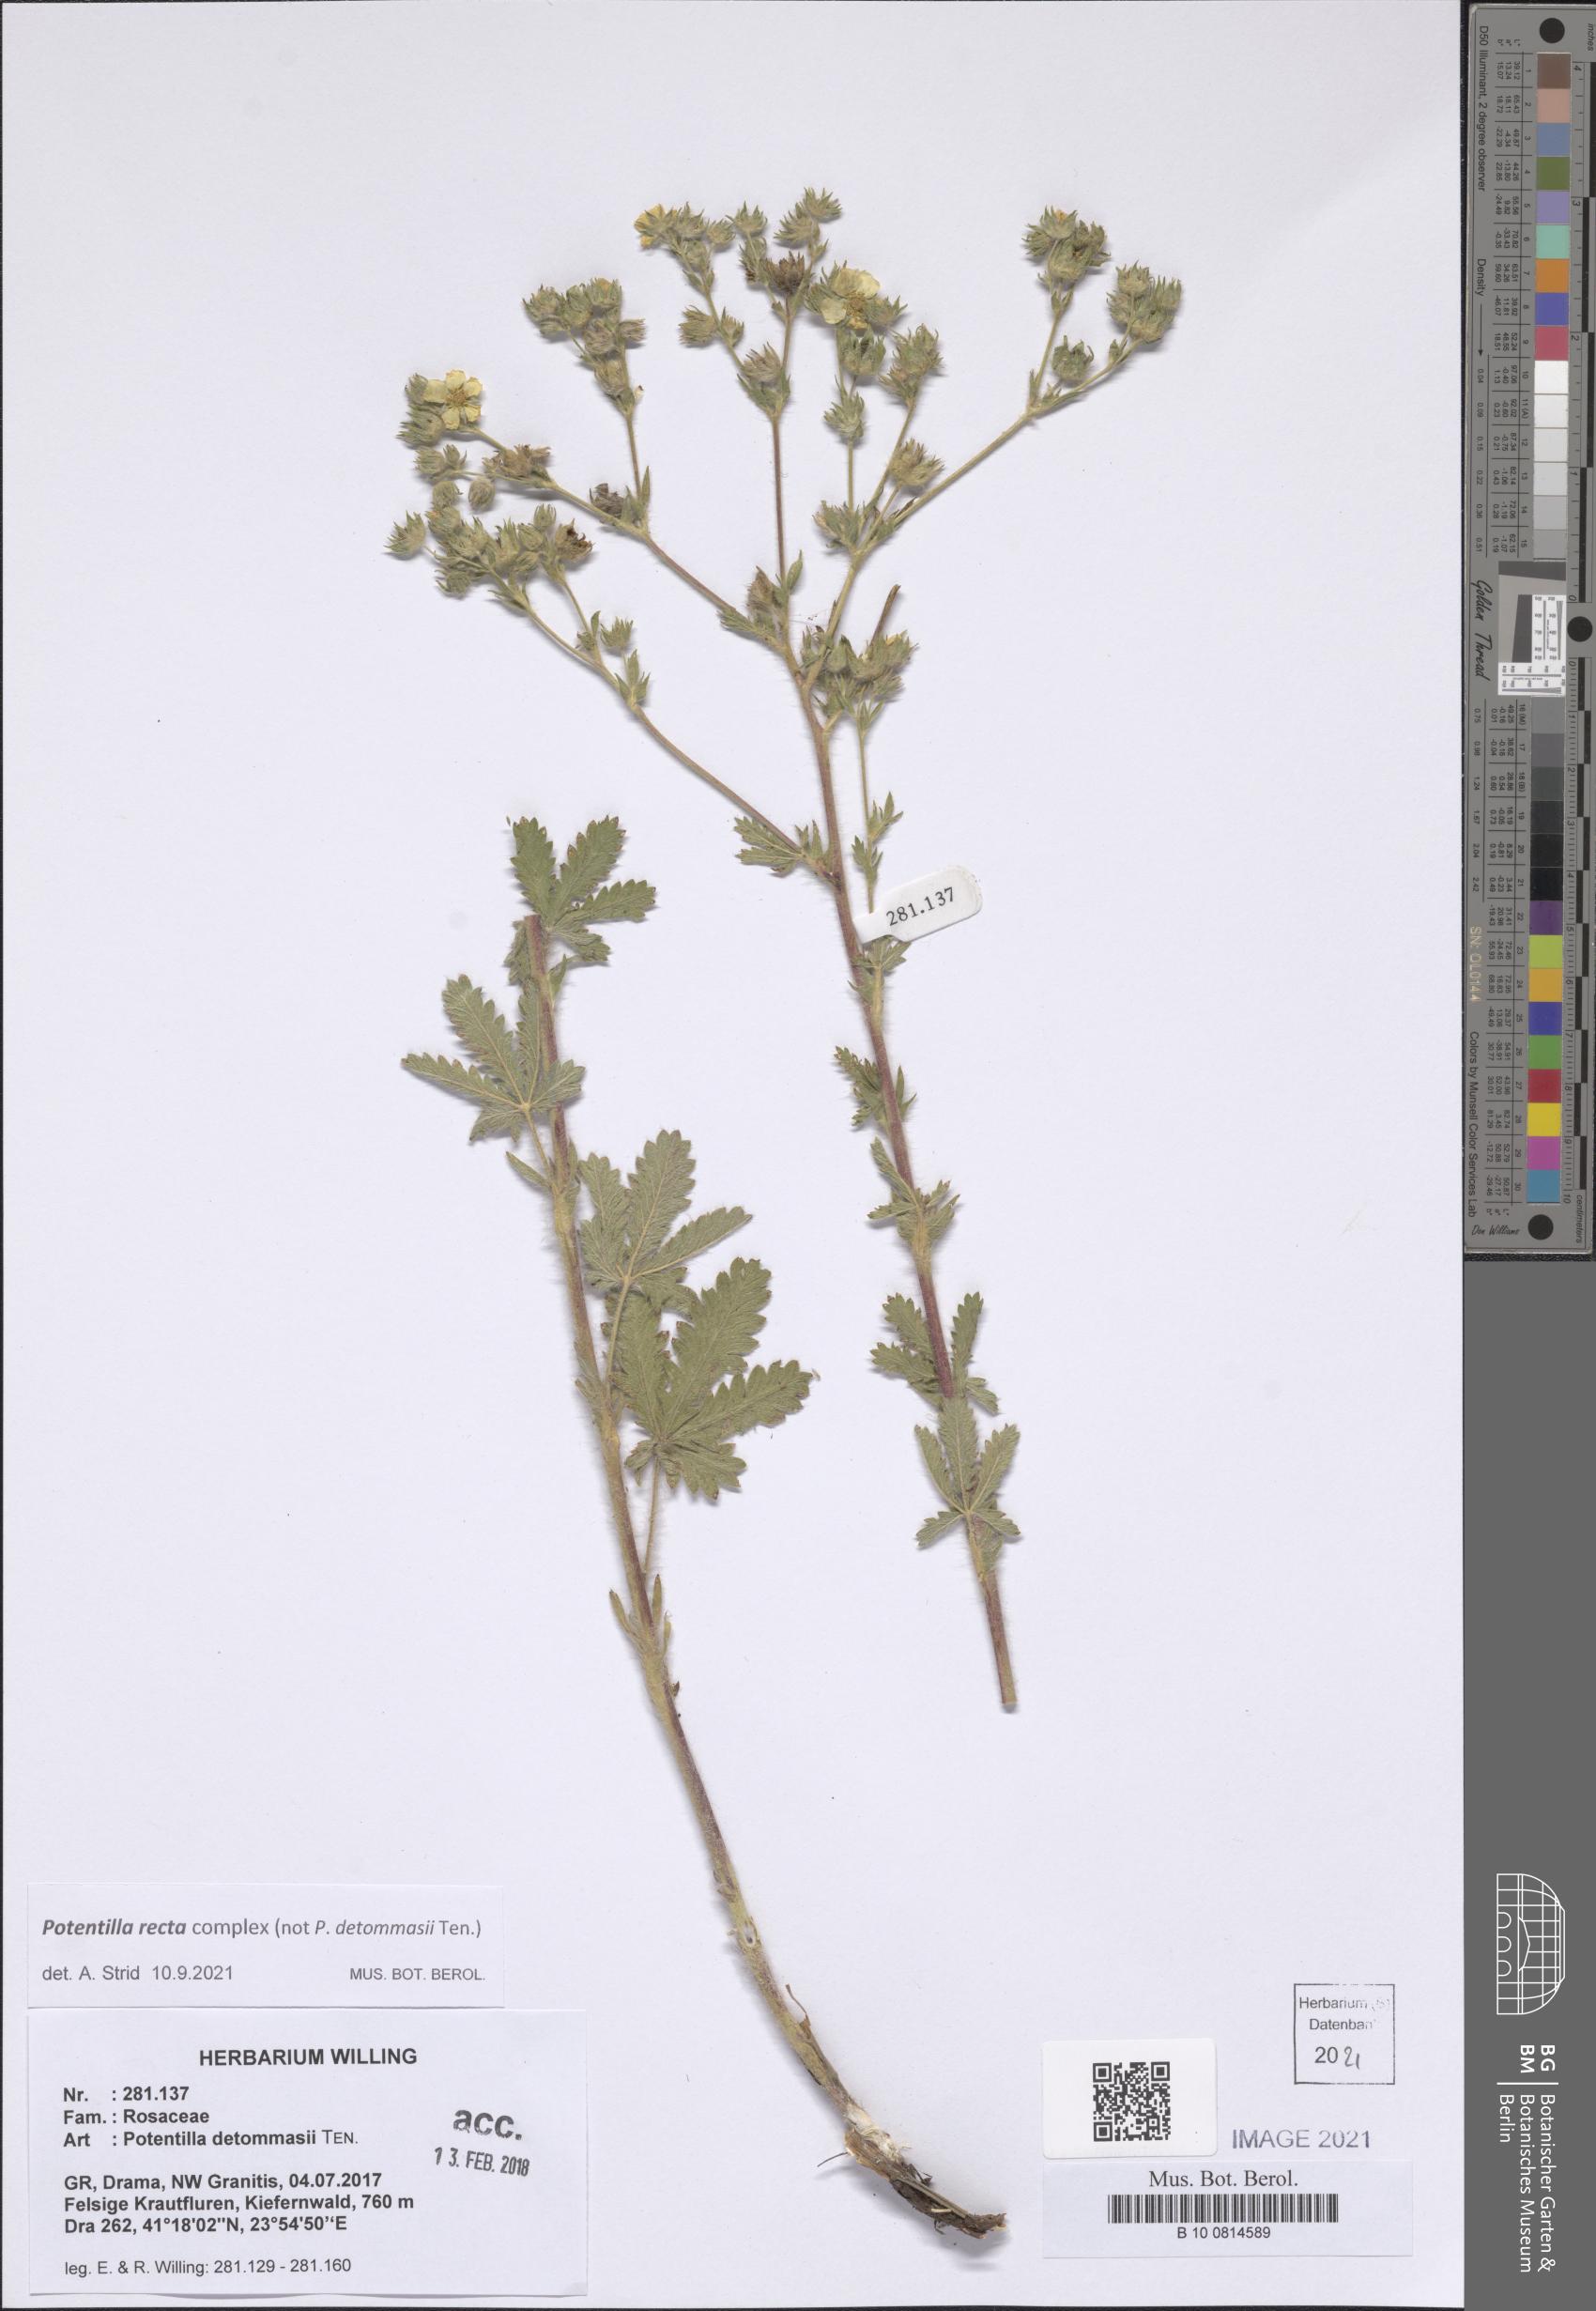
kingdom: Plantae
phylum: Tracheophyta
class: Magnoliopsida
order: Rosales
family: Rosaceae
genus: Potentilla
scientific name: Potentilla recta
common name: Sulphur cinquefoil
